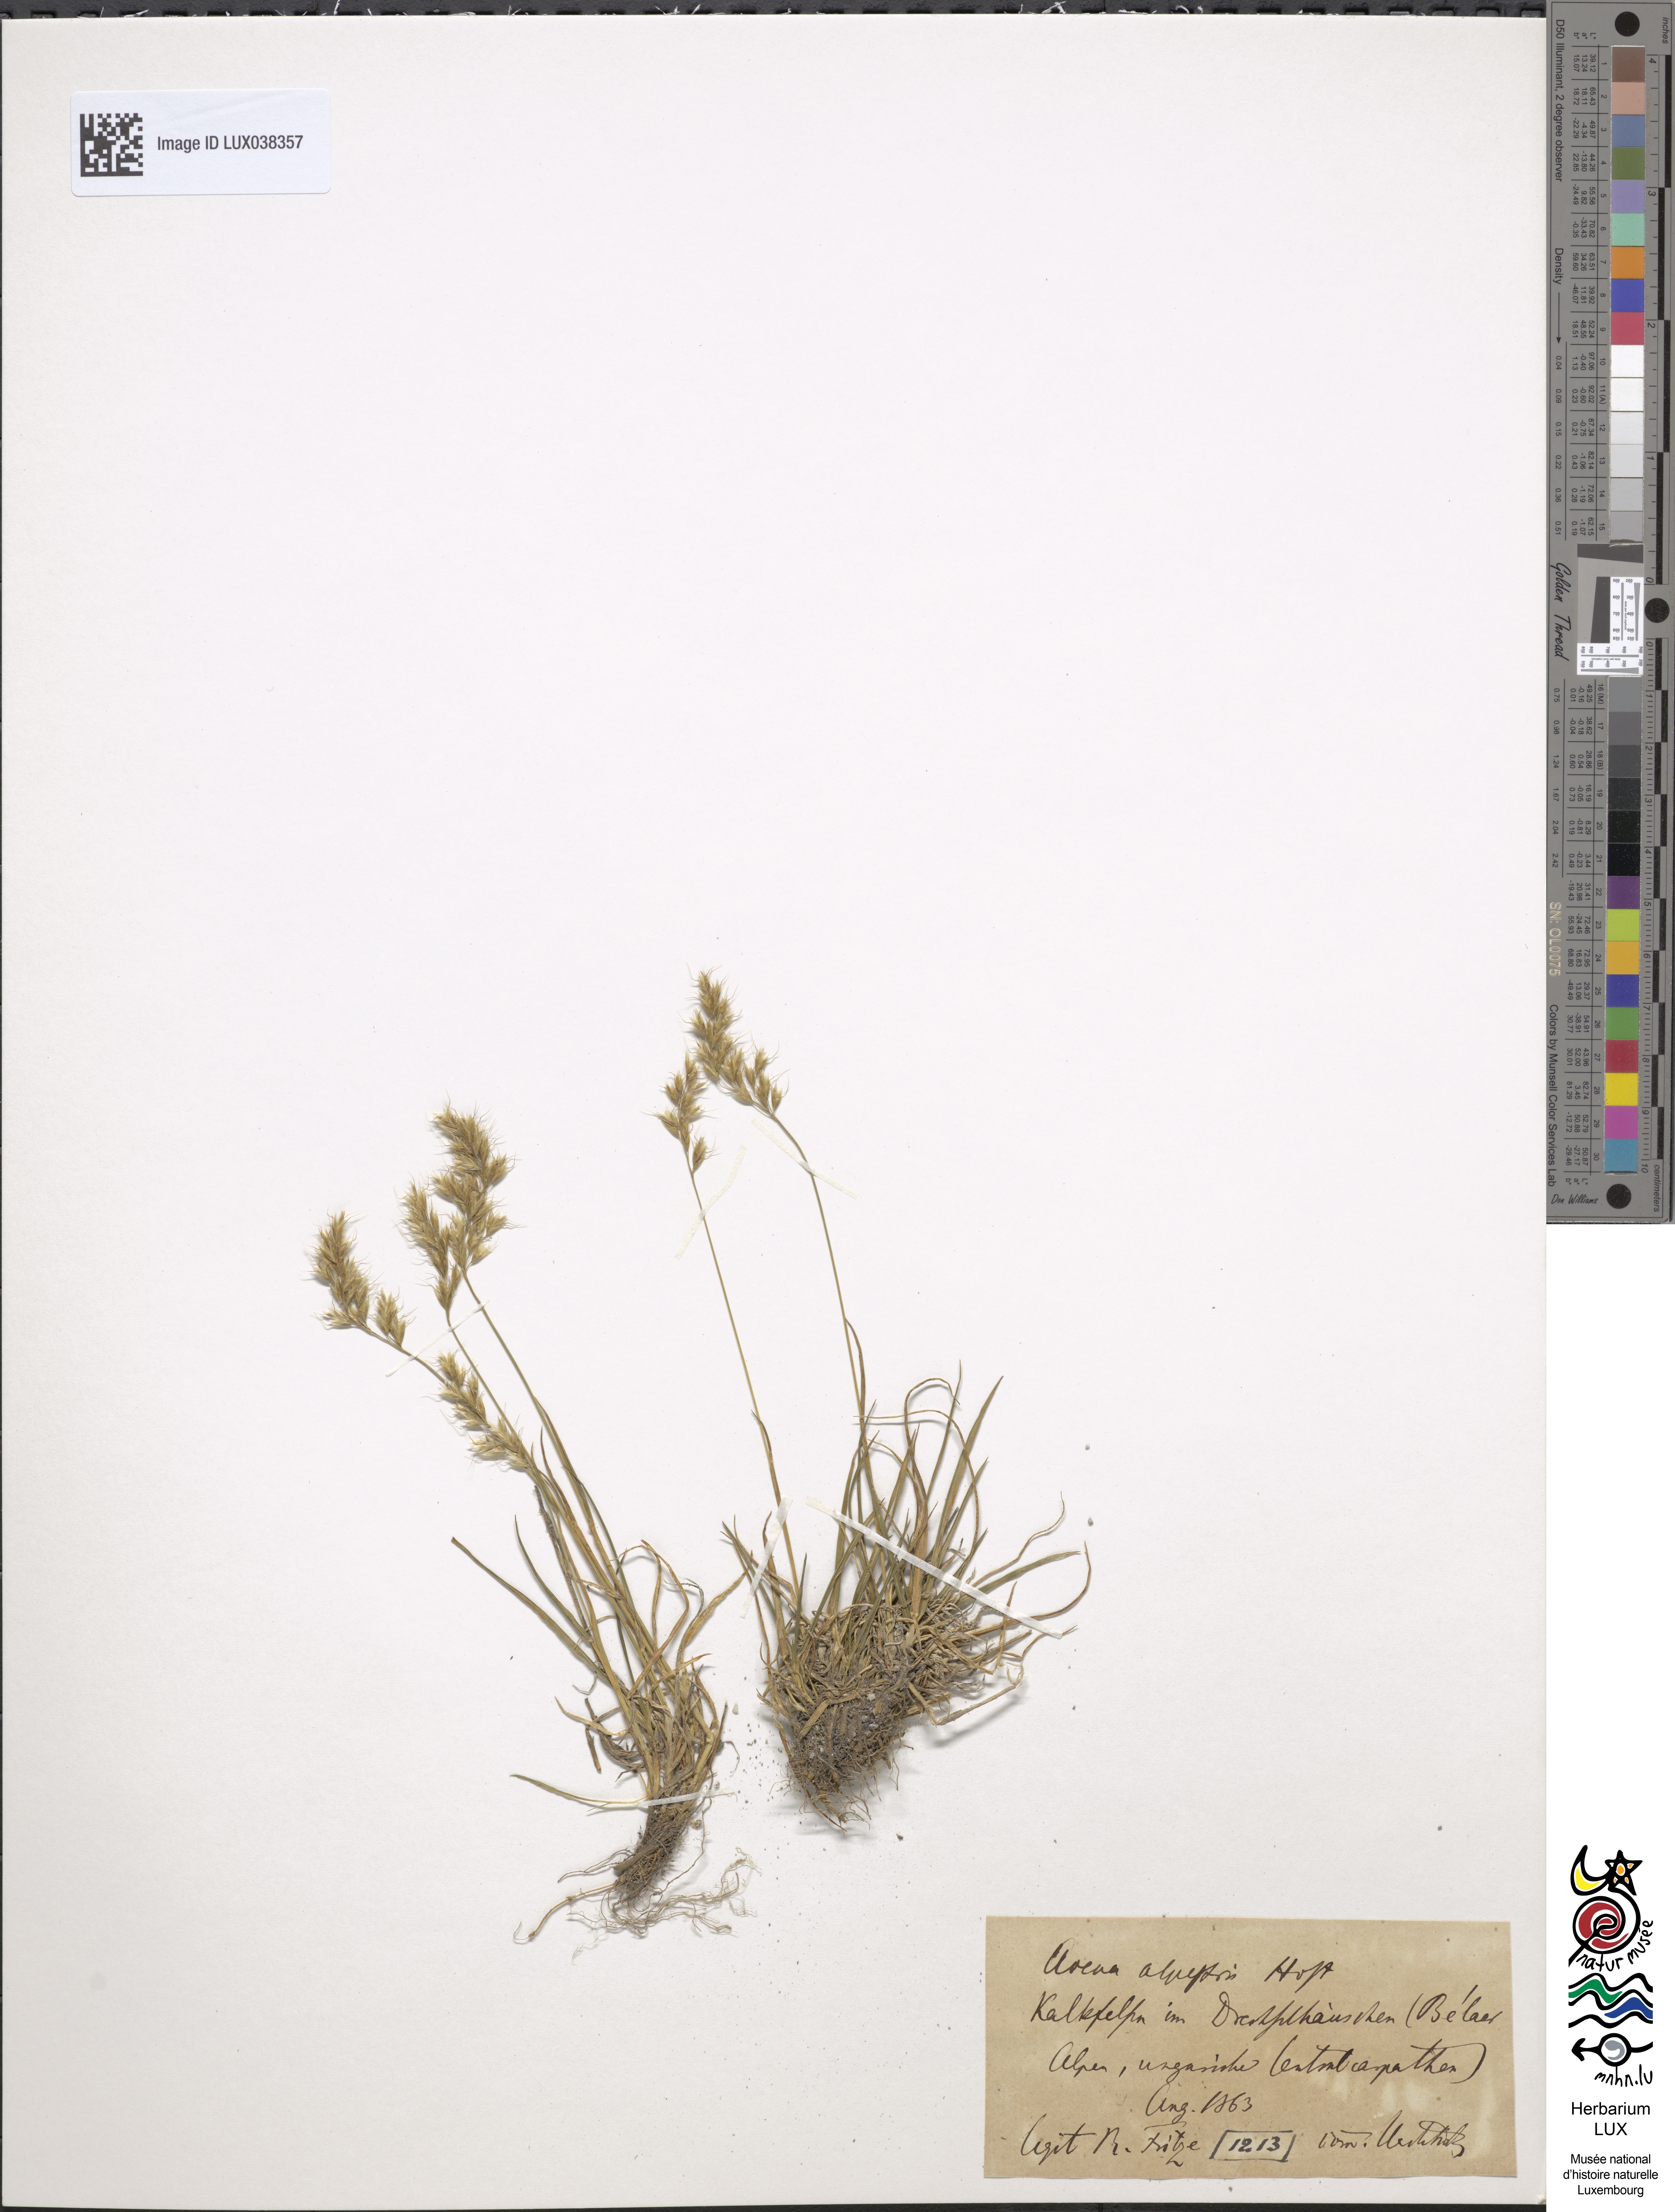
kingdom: Plantae
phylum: Tracheophyta
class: Liliopsida
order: Poales
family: Poaceae
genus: Trisetum
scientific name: Trisetum alpestre
